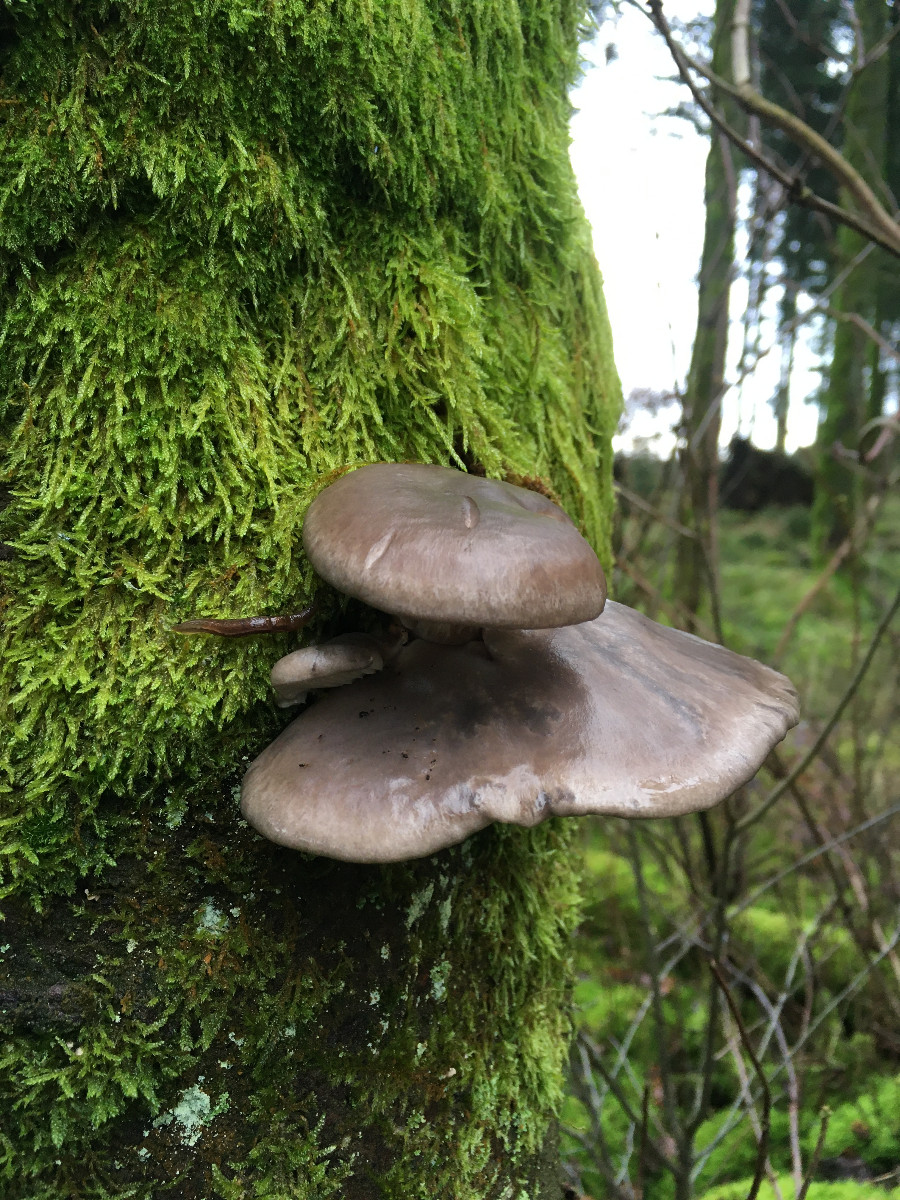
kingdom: Fungi
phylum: Basidiomycota
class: Agaricomycetes
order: Agaricales
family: Pleurotaceae
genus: Pleurotus
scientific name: Pleurotus ostreatus
